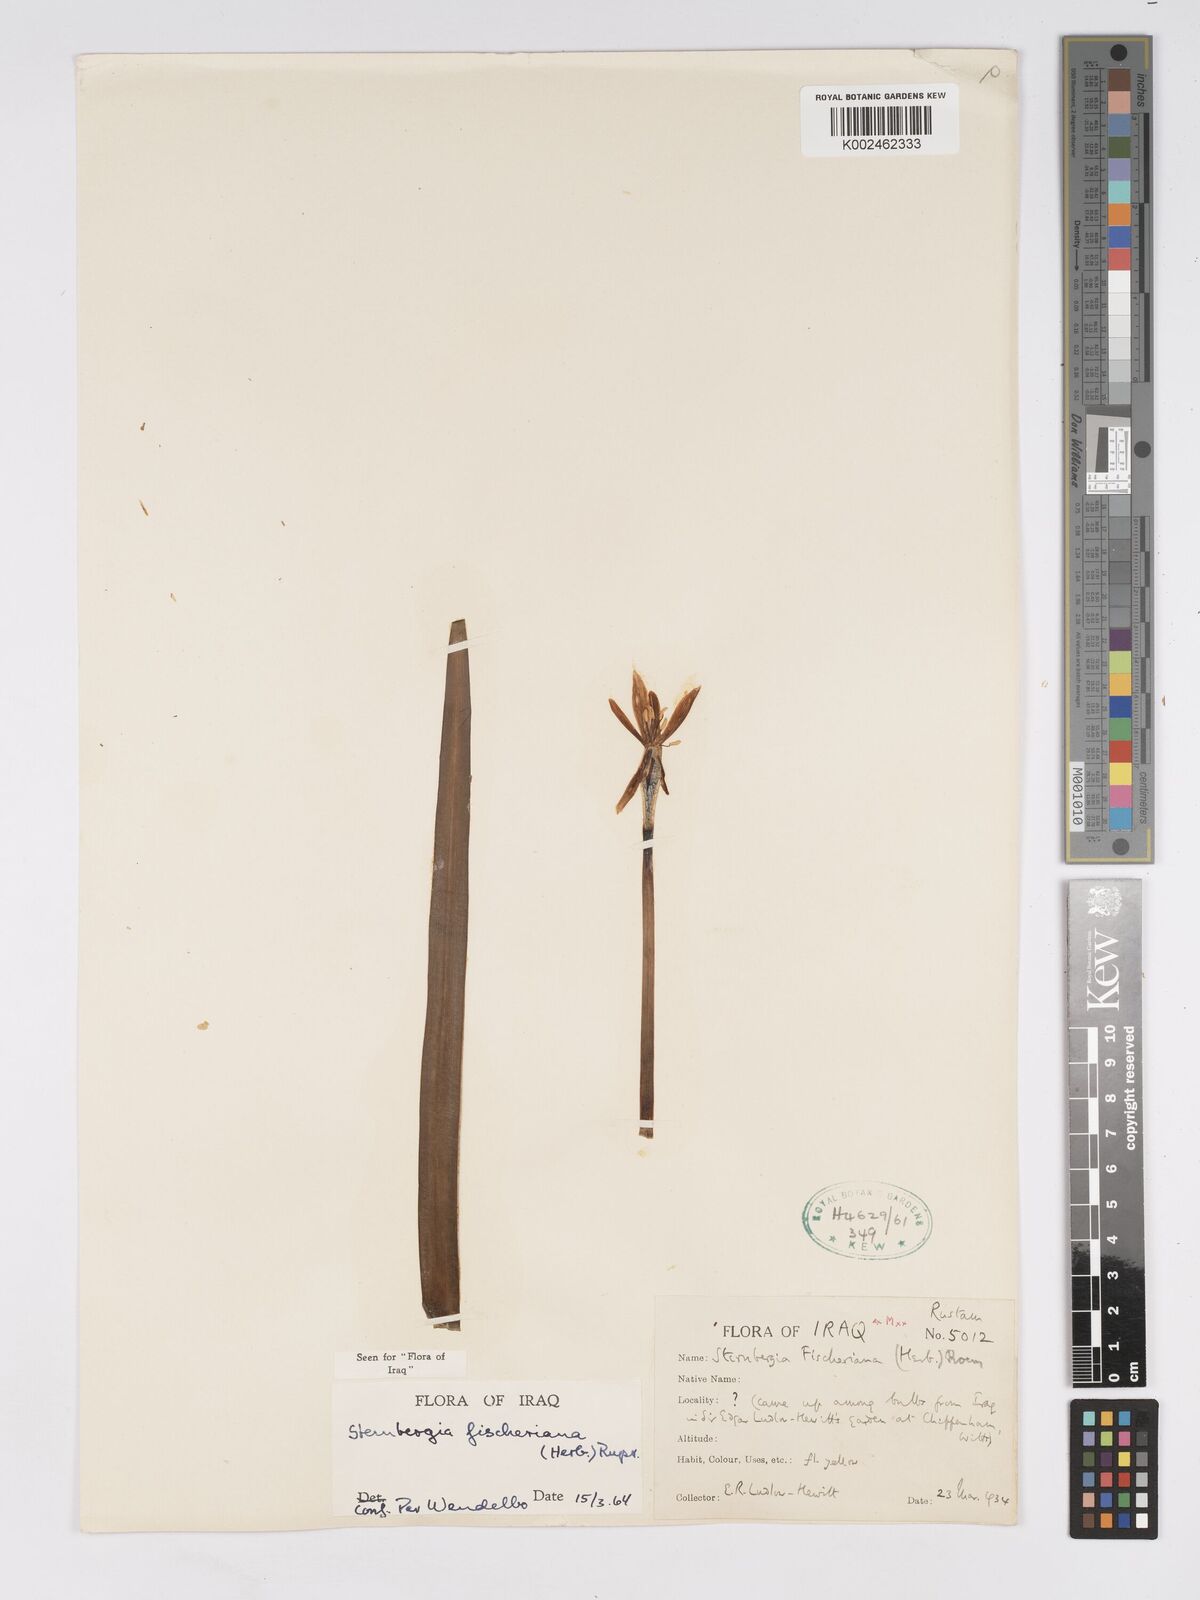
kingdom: Plantae
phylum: Tracheophyta
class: Liliopsida
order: Asparagales
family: Amaryllidaceae
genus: Sternbergia
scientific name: Sternbergia vernalis
